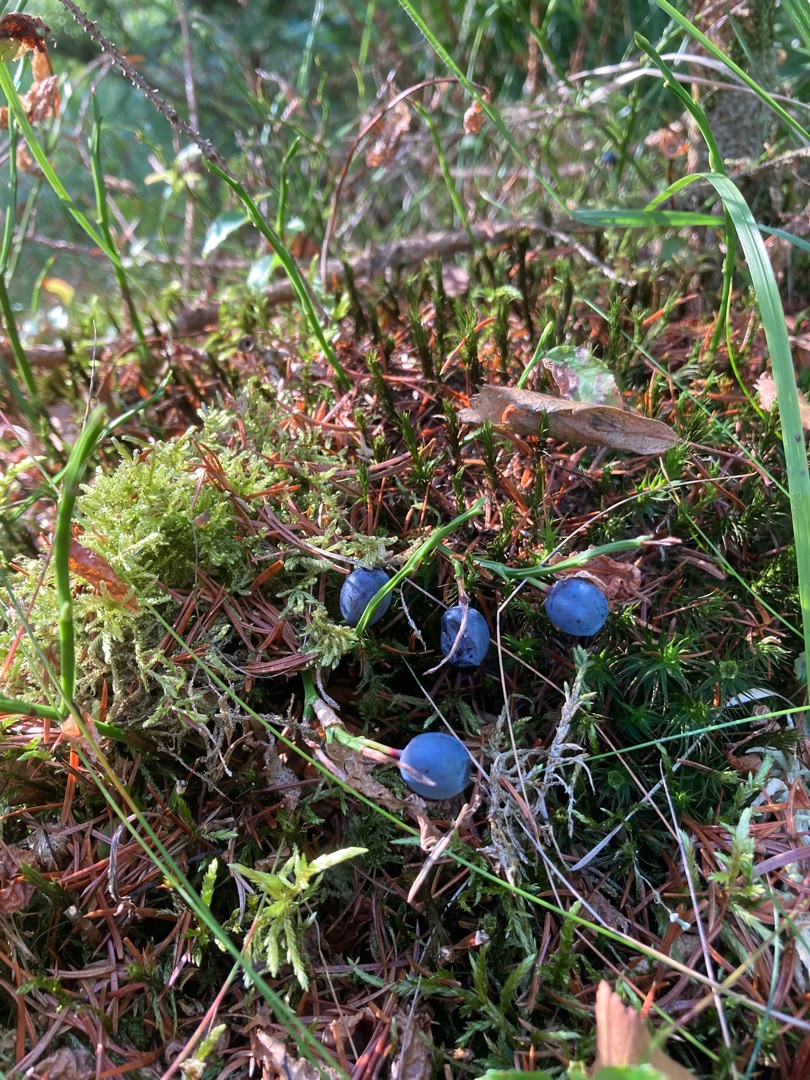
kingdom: Plantae
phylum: Tracheophyta
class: Magnoliopsida
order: Ericales
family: Ericaceae
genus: Vaccinium
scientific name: Vaccinium myrtillus
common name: Blåbær
